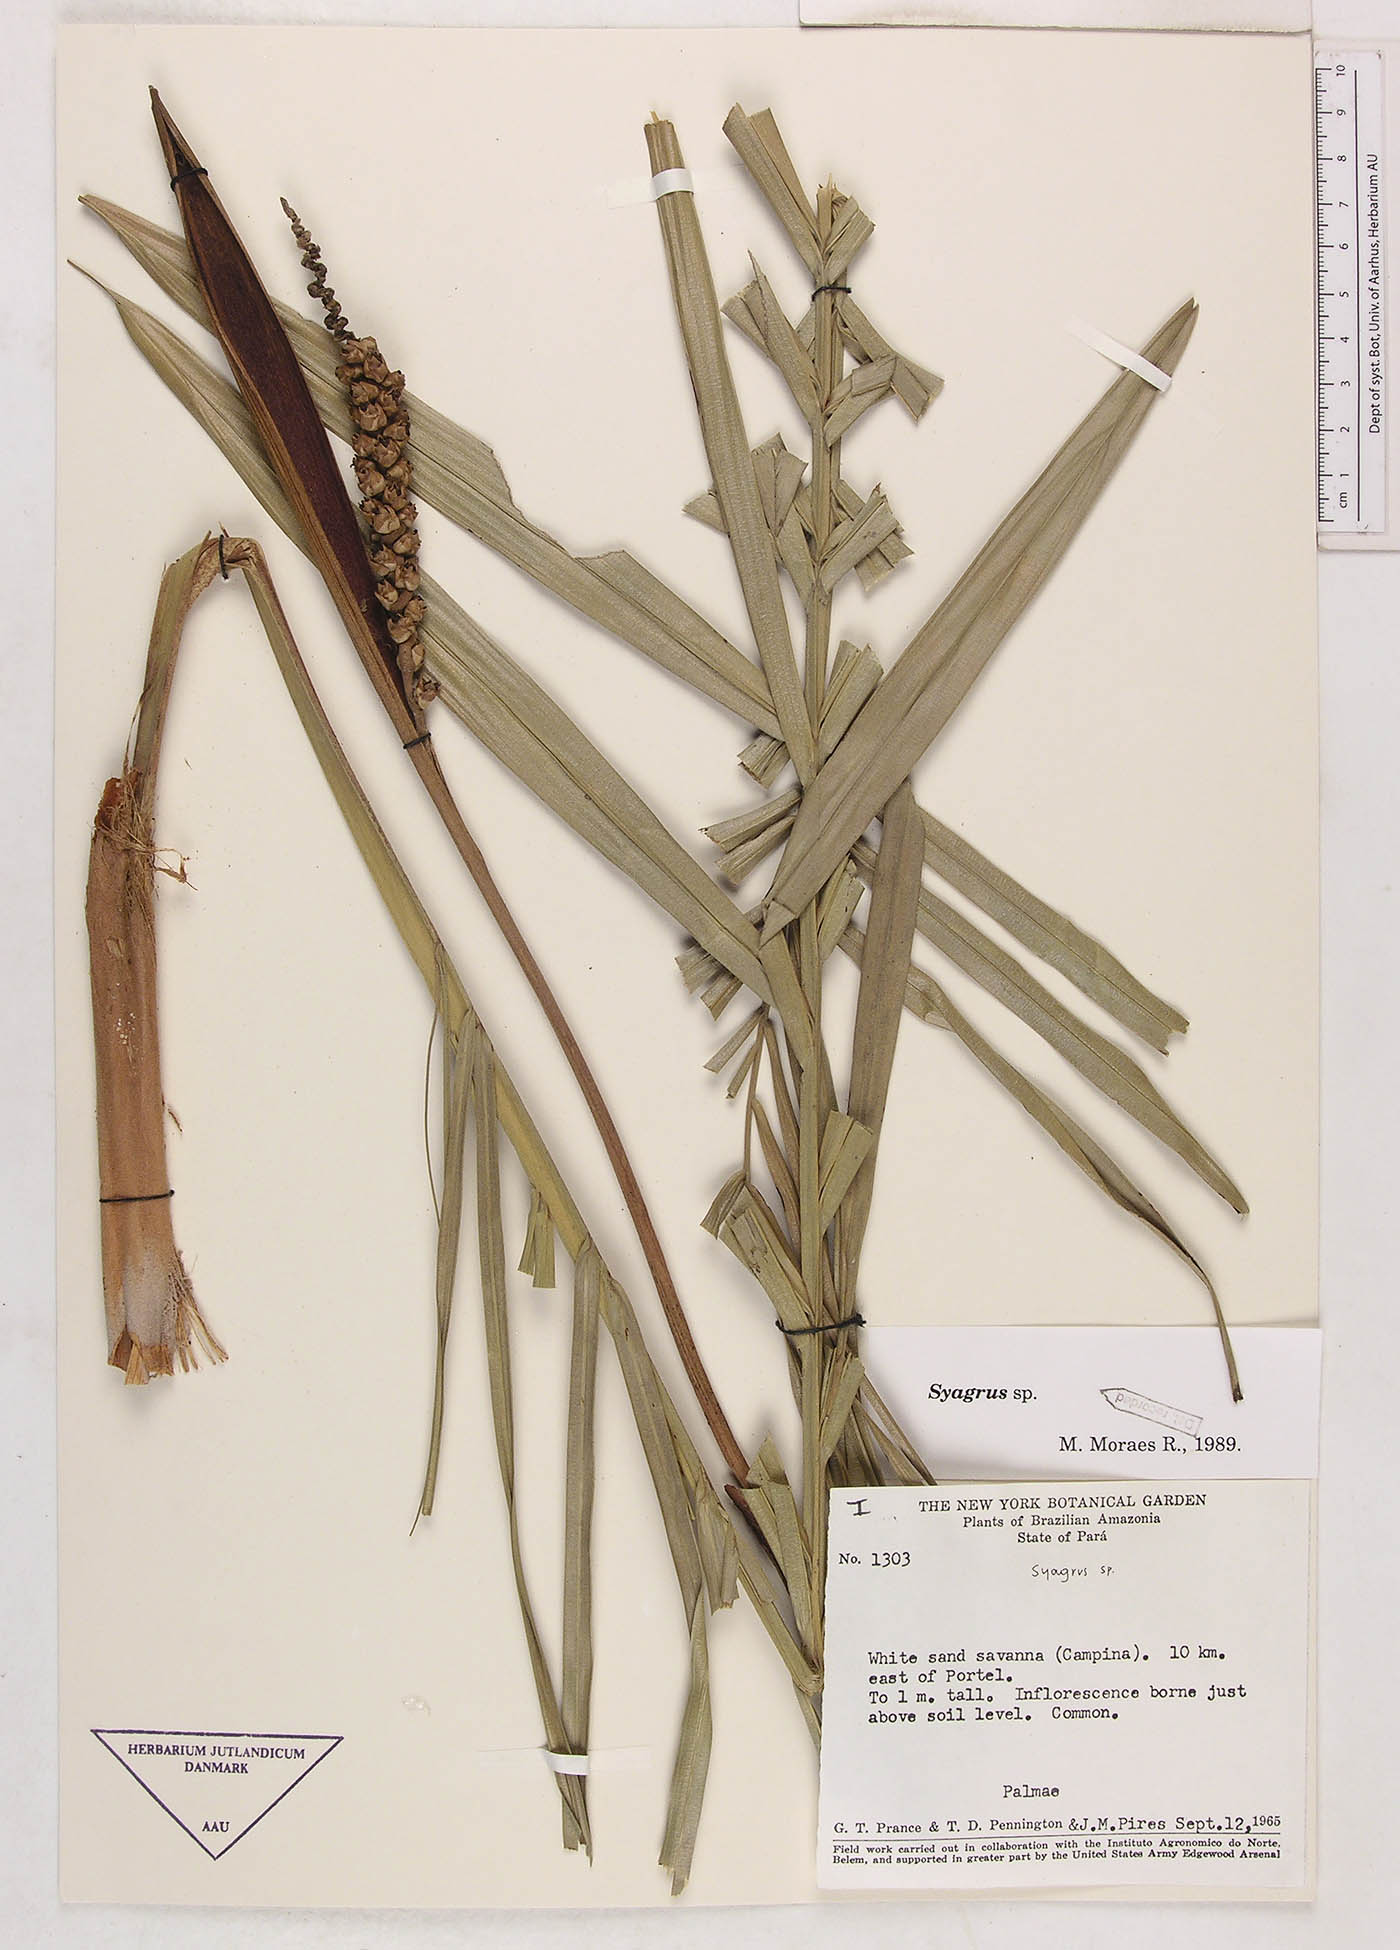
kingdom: Plantae
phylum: Tracheophyta
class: Liliopsida
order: Arecales
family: Arecaceae
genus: Syagrus
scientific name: Syagrus
